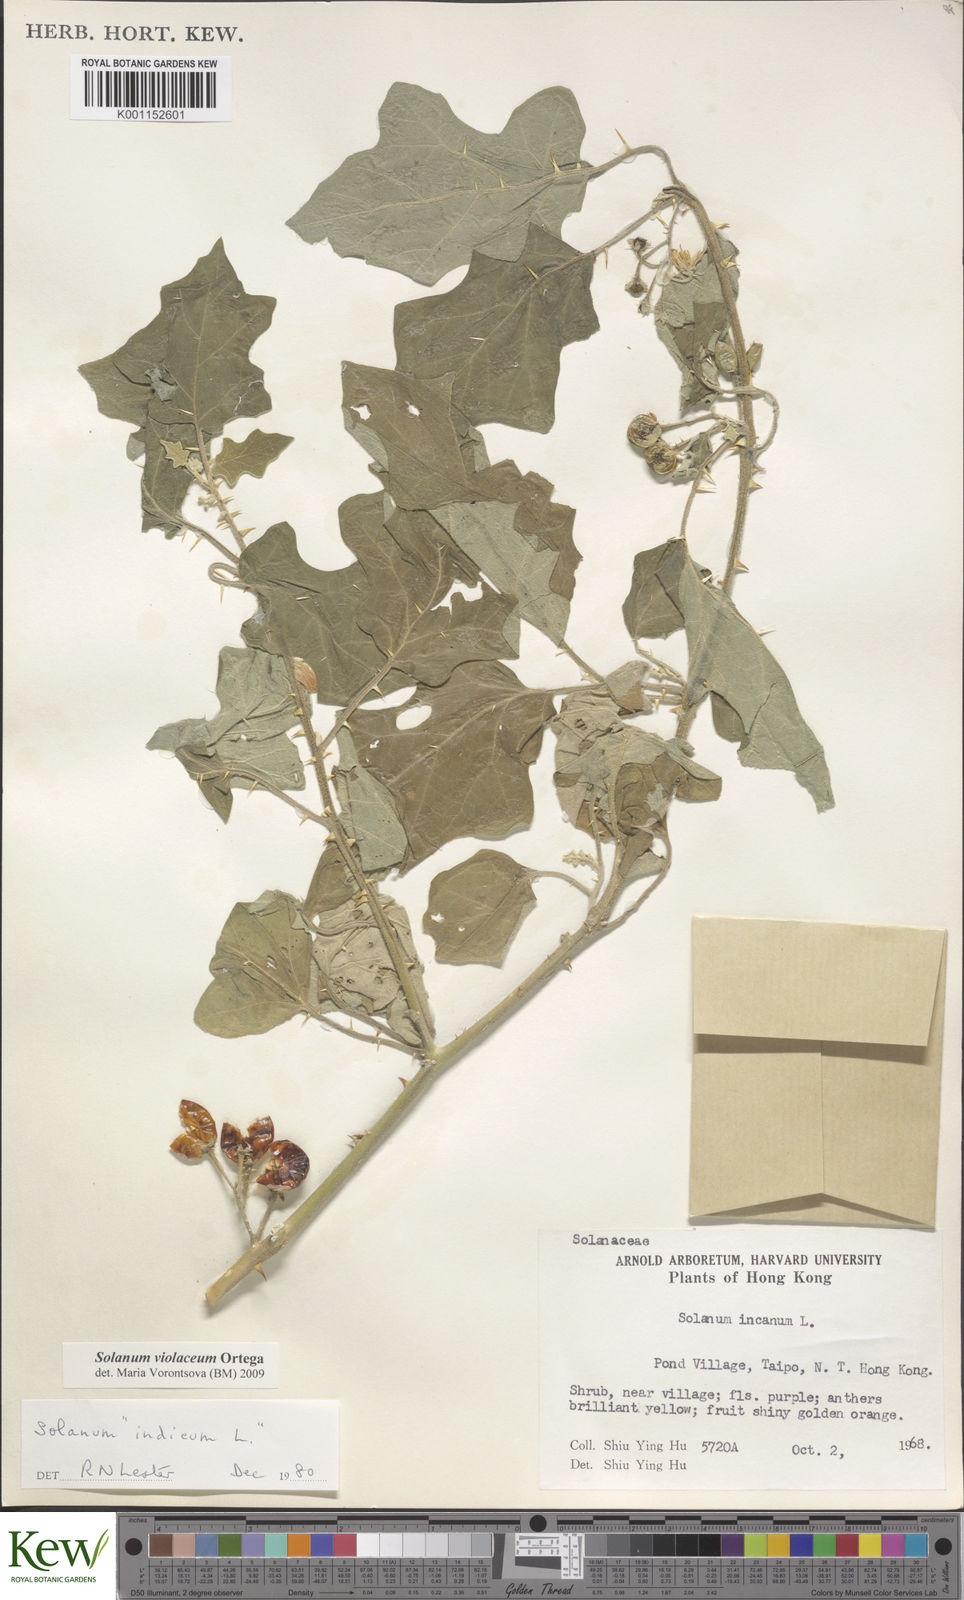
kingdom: Plantae
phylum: Tracheophyta
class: Magnoliopsida
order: Solanales
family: Solanaceae
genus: Solanum
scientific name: Solanum violaceum
